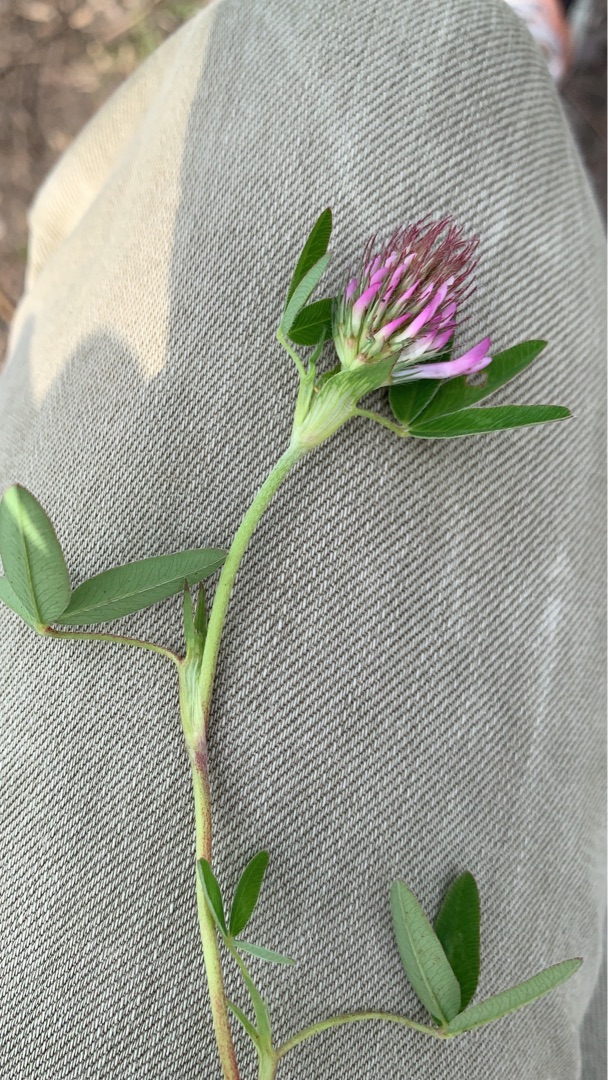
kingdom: Plantae
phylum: Tracheophyta
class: Magnoliopsida
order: Fabales
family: Fabaceae
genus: Trifolium
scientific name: Trifolium medium
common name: Bugtet kløver
